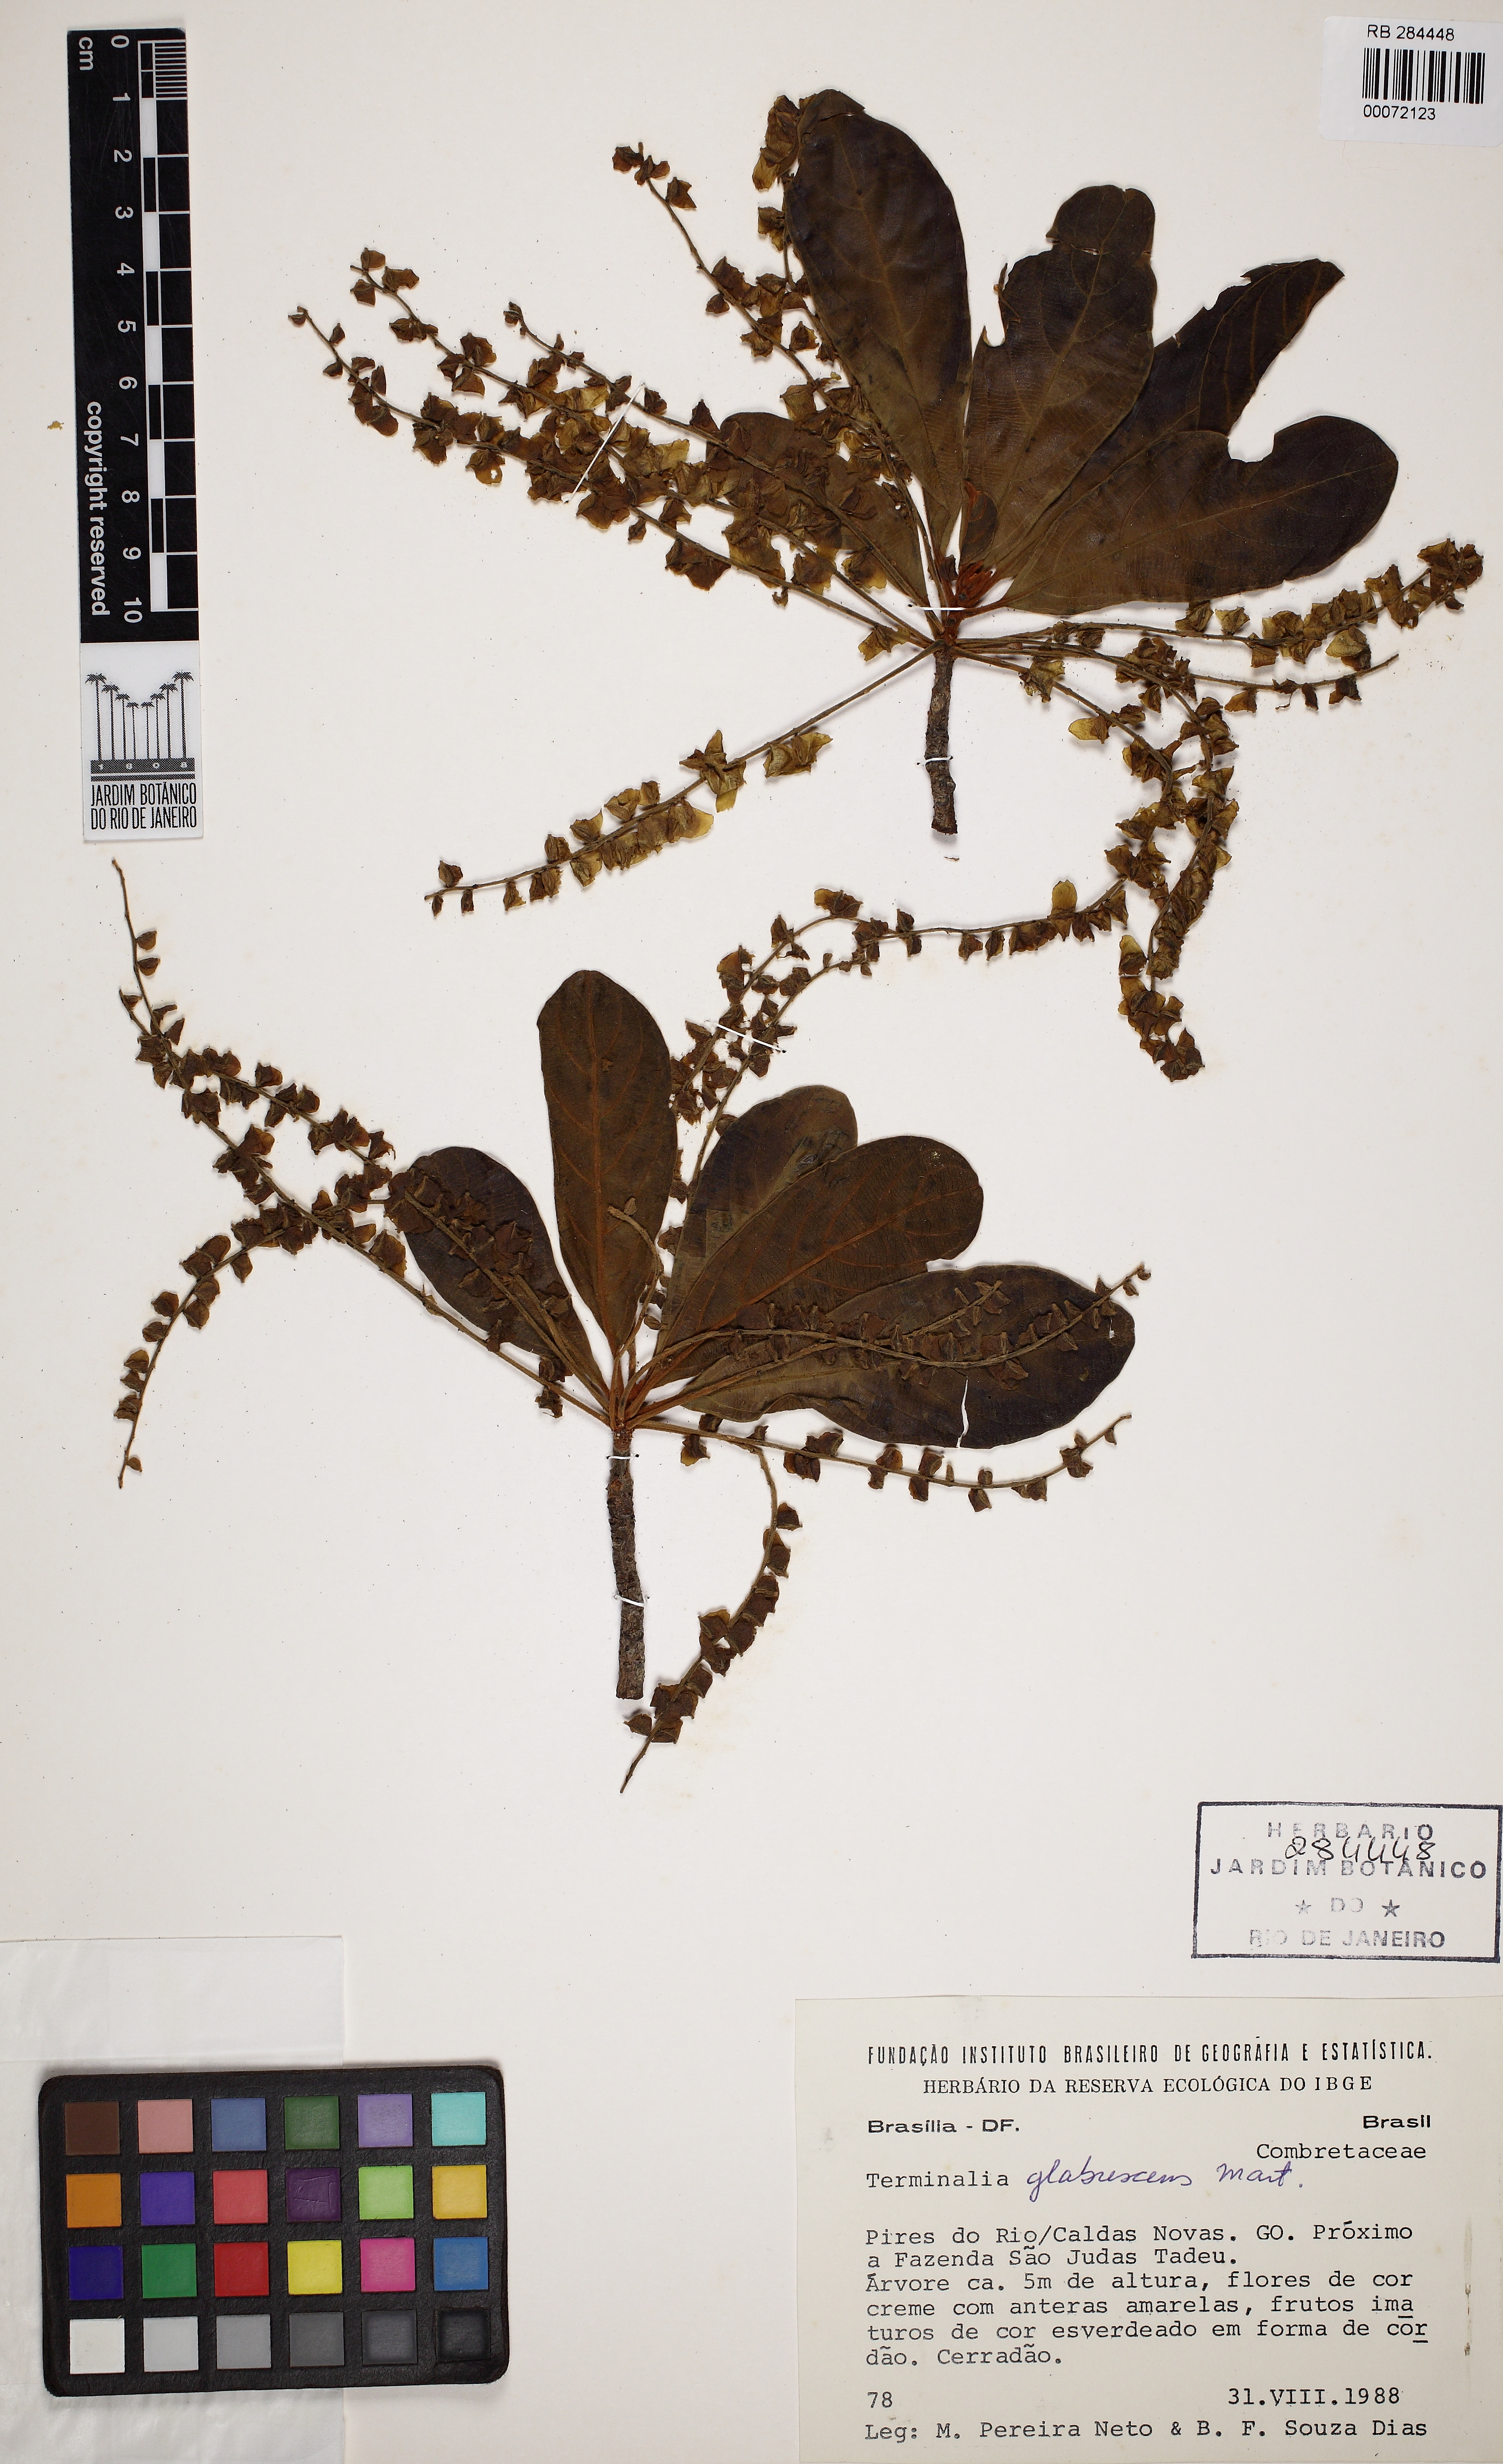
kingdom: Plantae
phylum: Tracheophyta
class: Magnoliopsida
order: Myrtales
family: Combretaceae
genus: Terminalia
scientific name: Terminalia glabrescens
